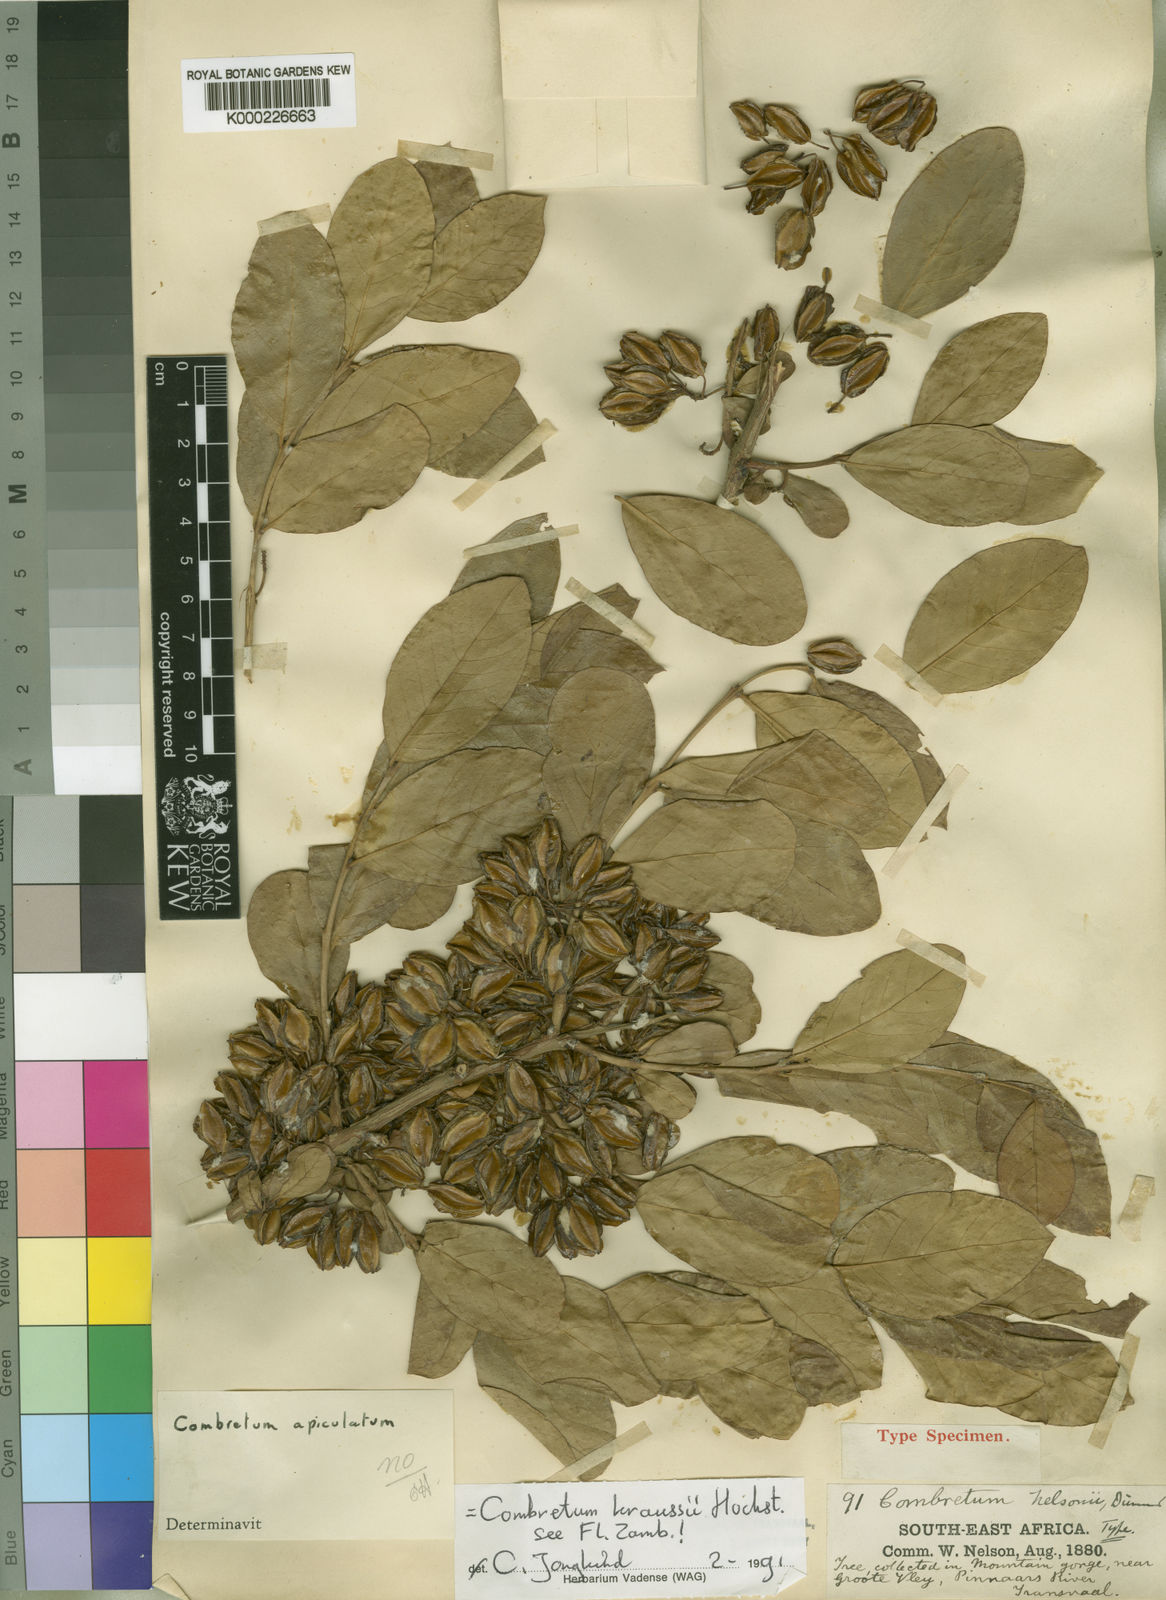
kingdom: Plantae
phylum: Tracheophyta
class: Magnoliopsida
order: Myrtales
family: Combretaceae
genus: Combretum
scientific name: Combretum kraussii
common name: Forest bushwillow
